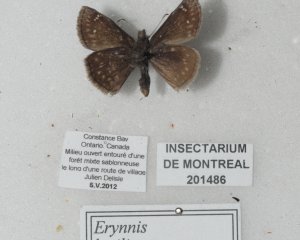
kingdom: Animalia
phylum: Arthropoda
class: Insecta
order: Lepidoptera
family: Hesperiidae
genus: Gesta
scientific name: Gesta
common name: Columbine Duskywing
